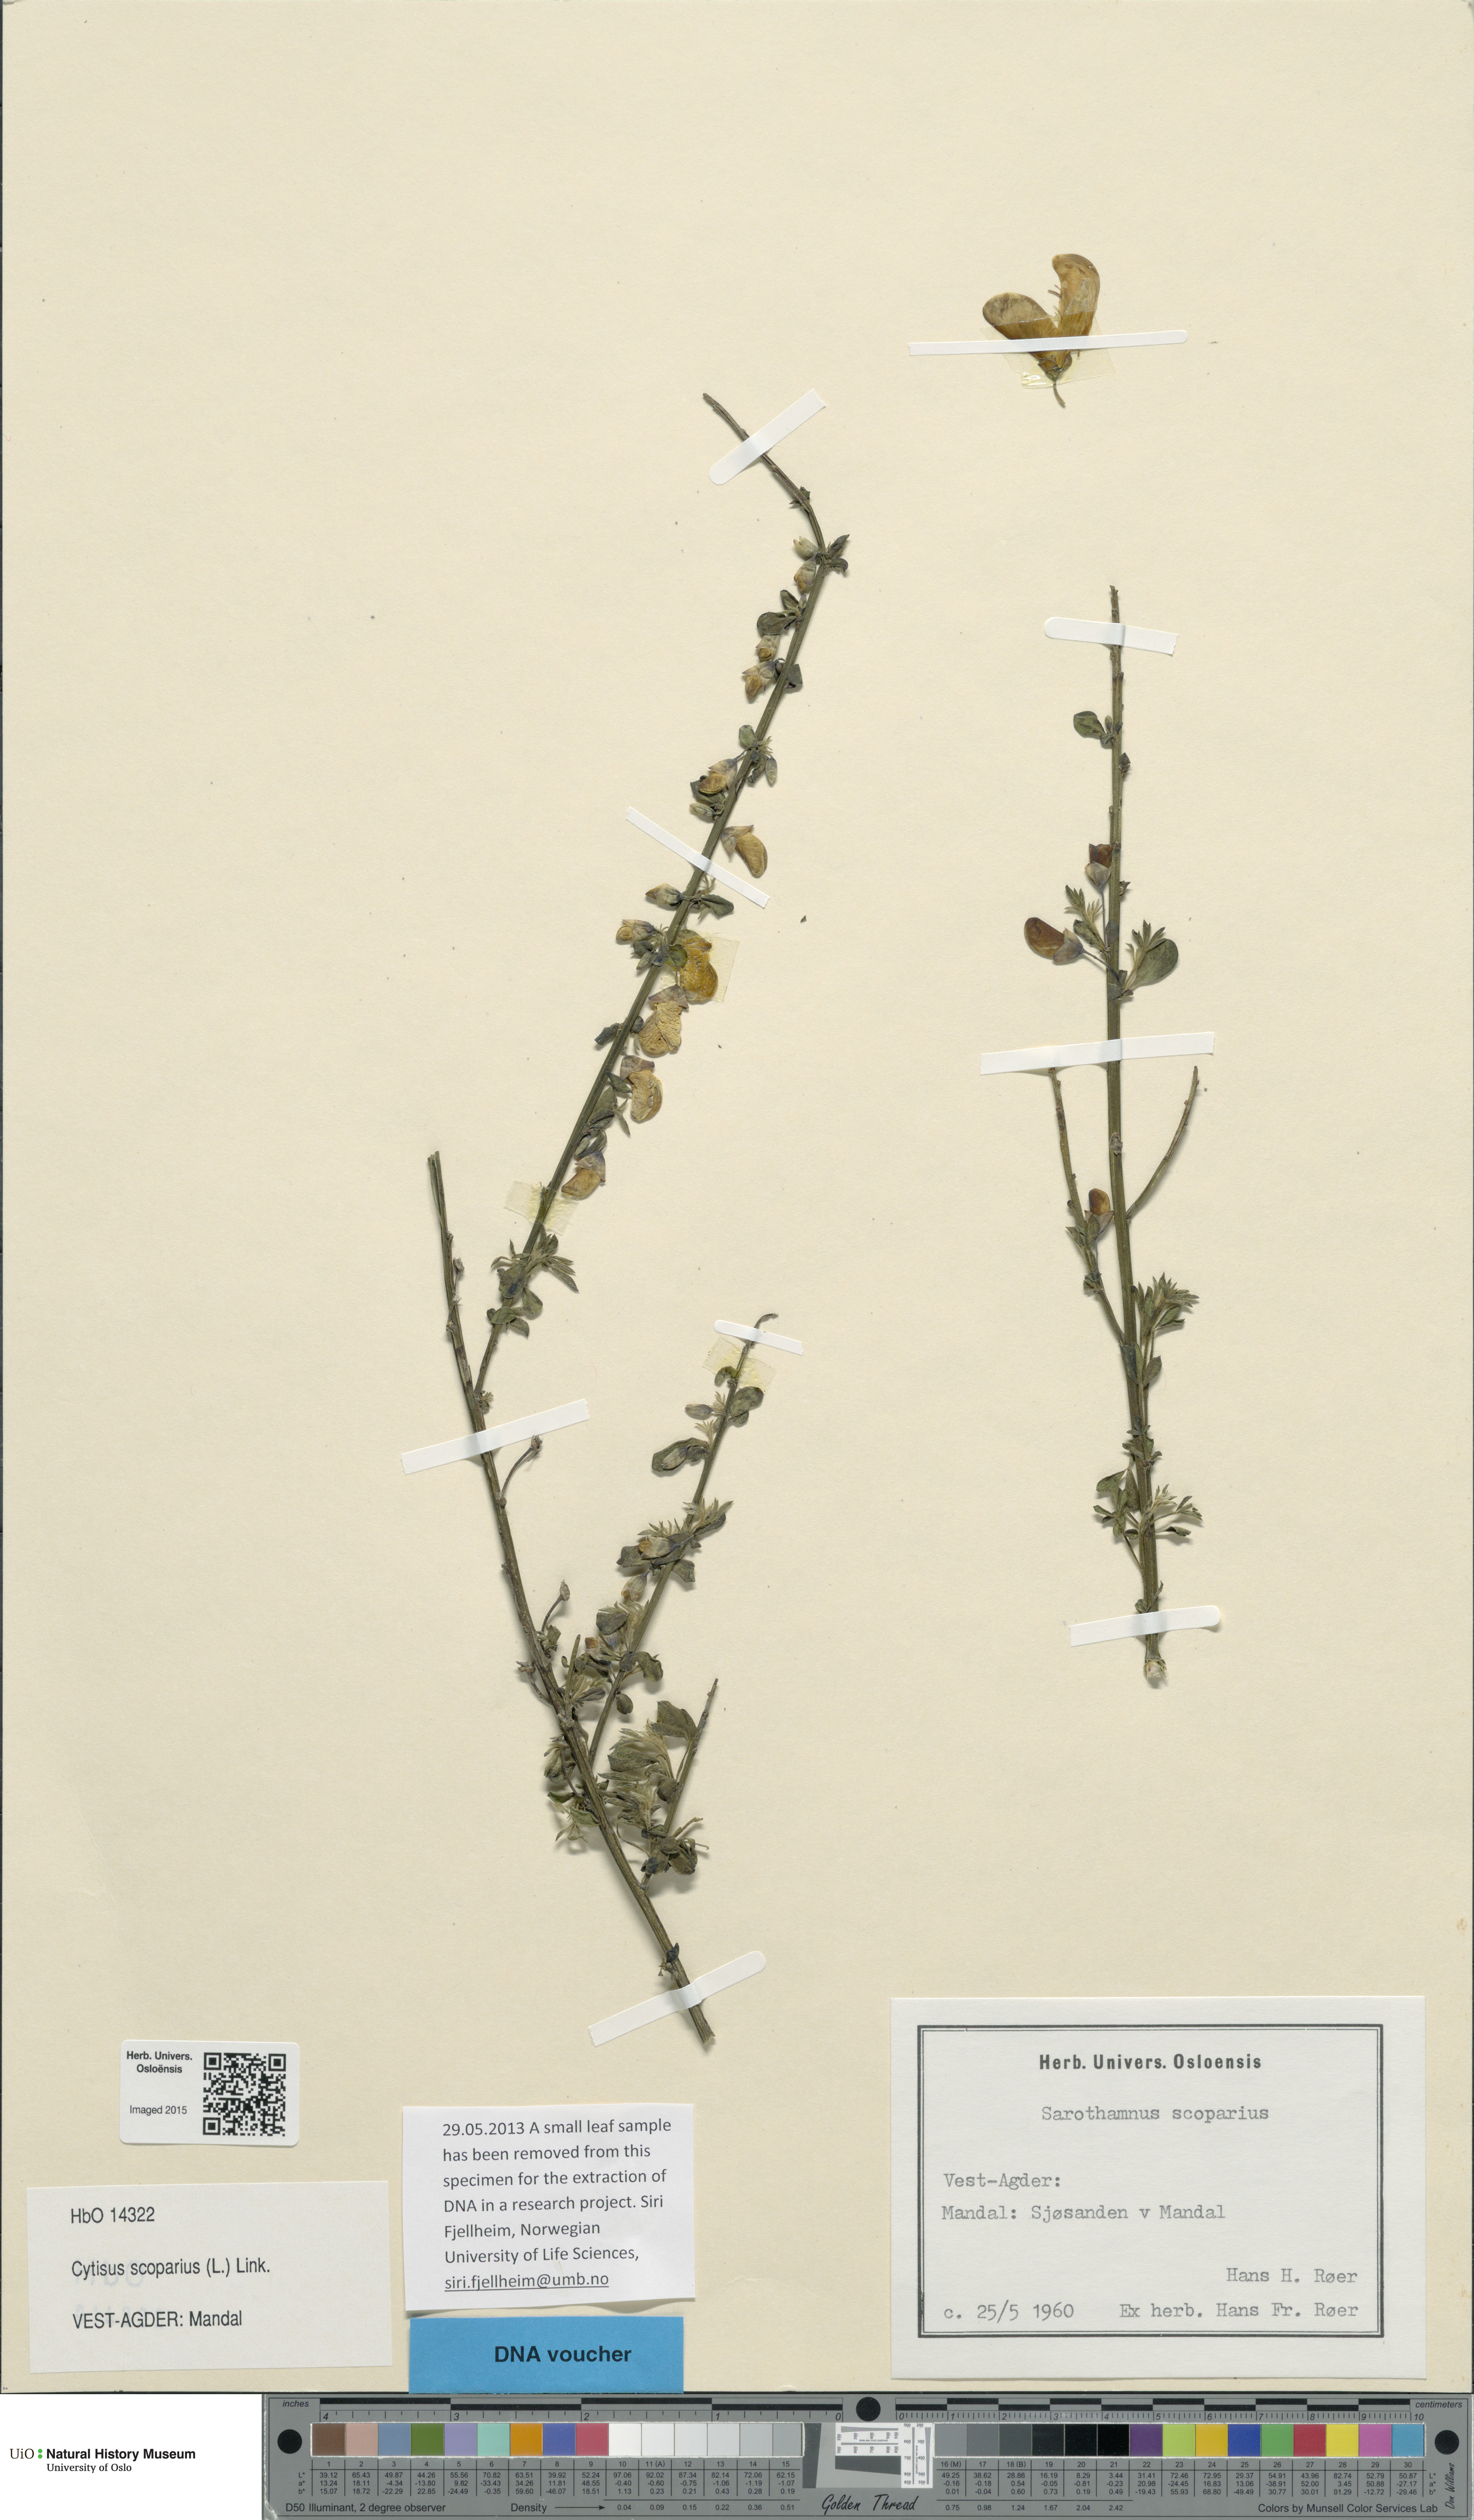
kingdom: Plantae
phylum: Tracheophyta
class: Magnoliopsida
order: Fabales
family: Fabaceae
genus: Cytisus
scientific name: Cytisus scoparius
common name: Scotch broom
